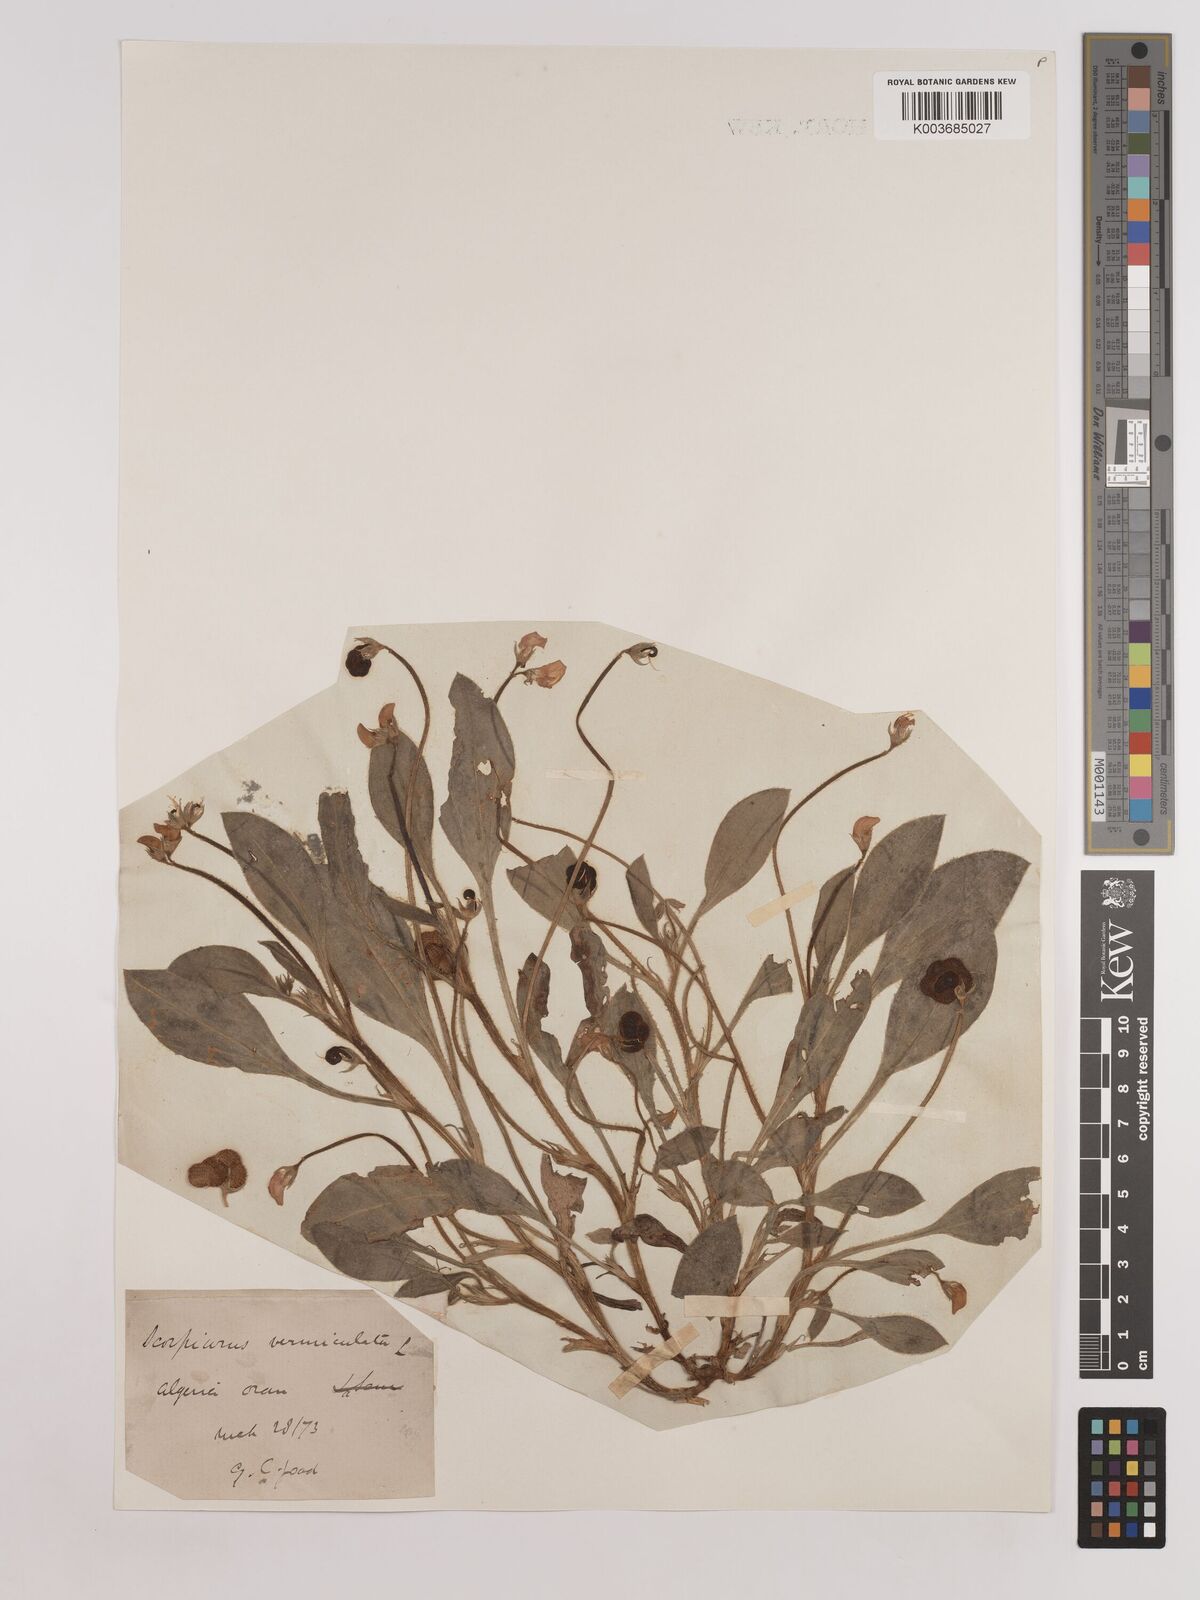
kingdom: Plantae
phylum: Tracheophyta
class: Magnoliopsida
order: Fabales
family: Fabaceae
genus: Scorpiurus
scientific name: Scorpiurus vermiculatus
